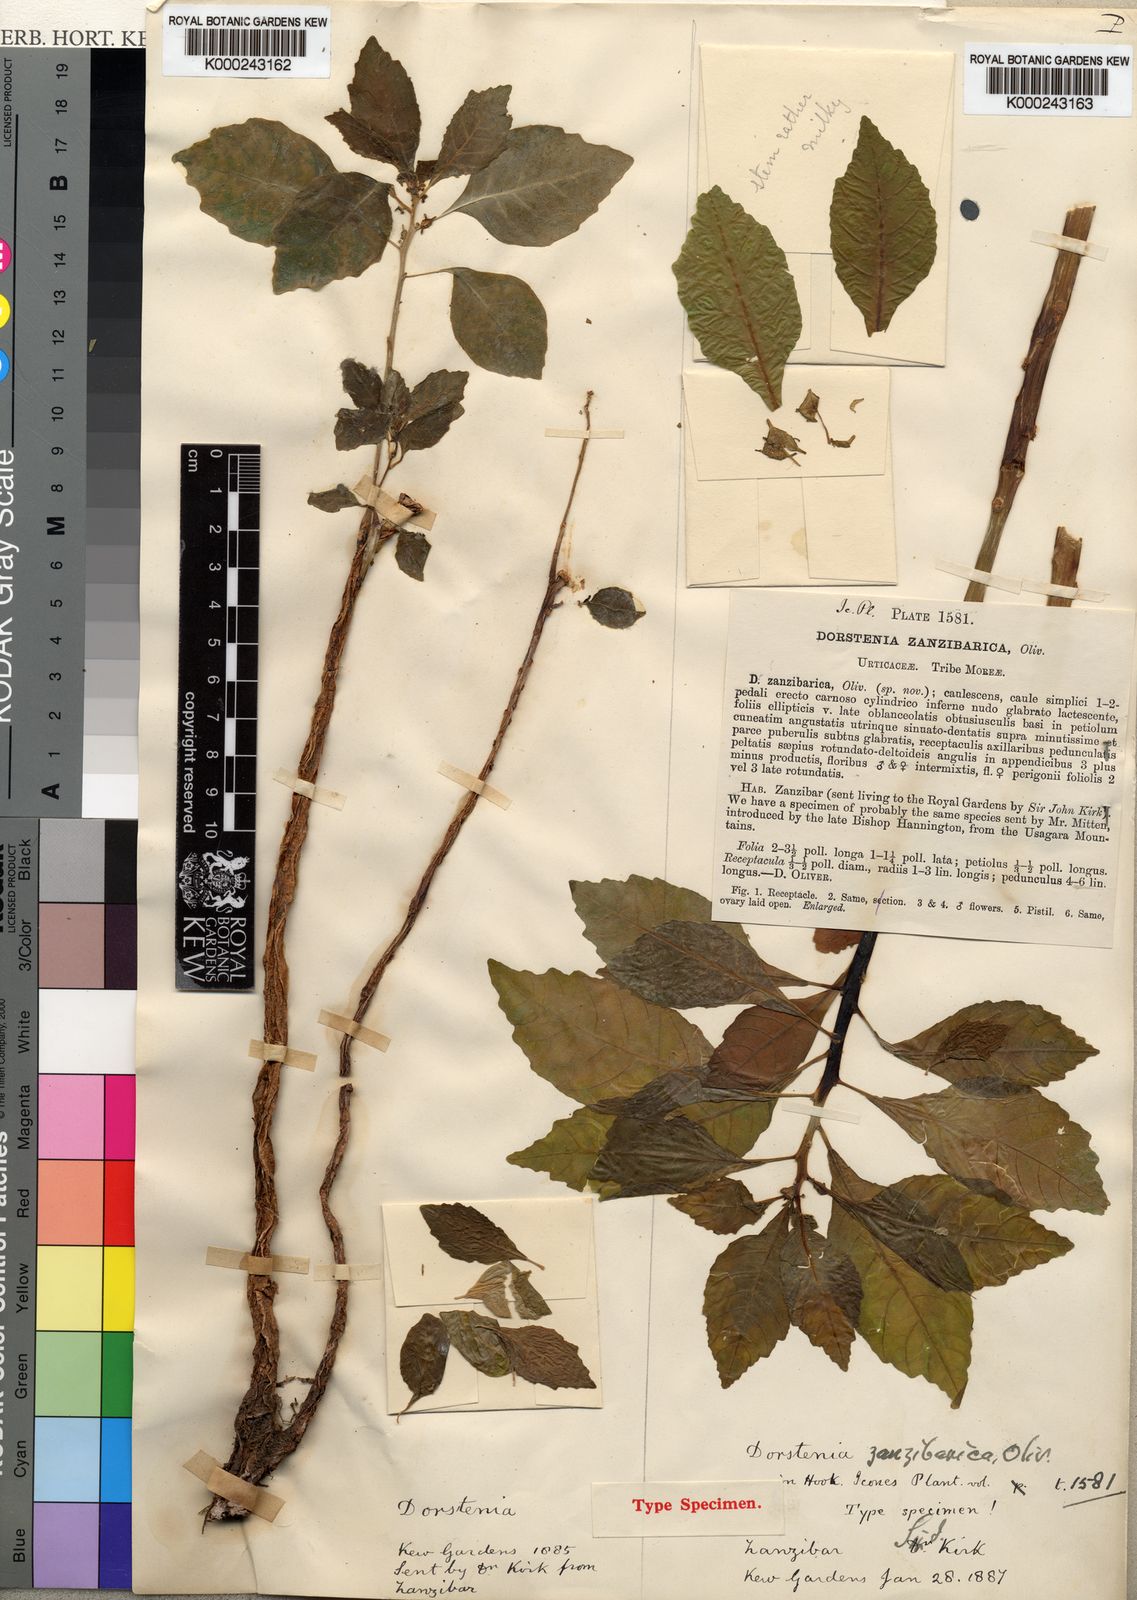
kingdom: Plantae
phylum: Tracheophyta
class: Magnoliopsida
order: Rosales
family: Moraceae
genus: Dorstenia
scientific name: Dorstenia zanzibarica
